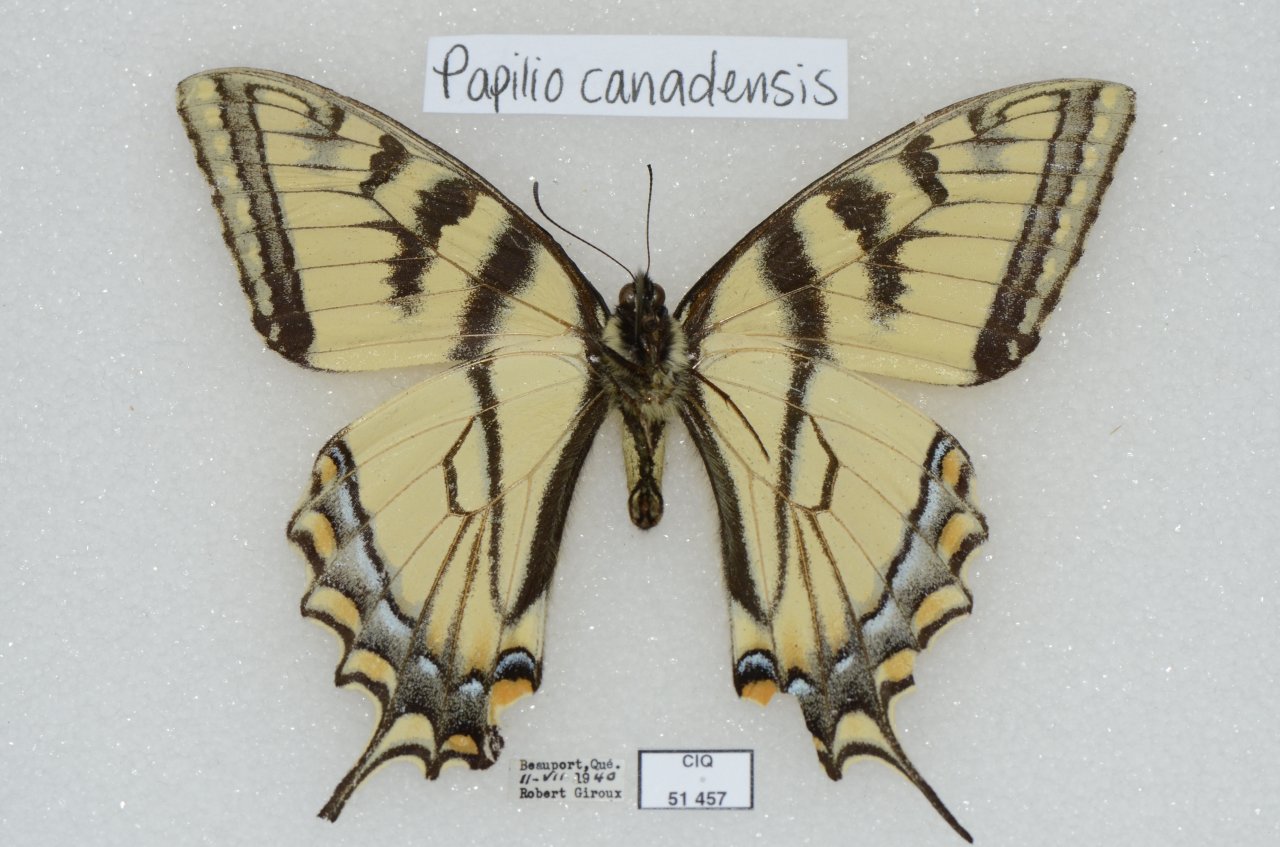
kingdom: Animalia
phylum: Arthropoda
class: Insecta
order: Lepidoptera
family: Papilionidae
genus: Pterourus
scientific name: Pterourus canadensis
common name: Canadian Tiger Swallowtail
